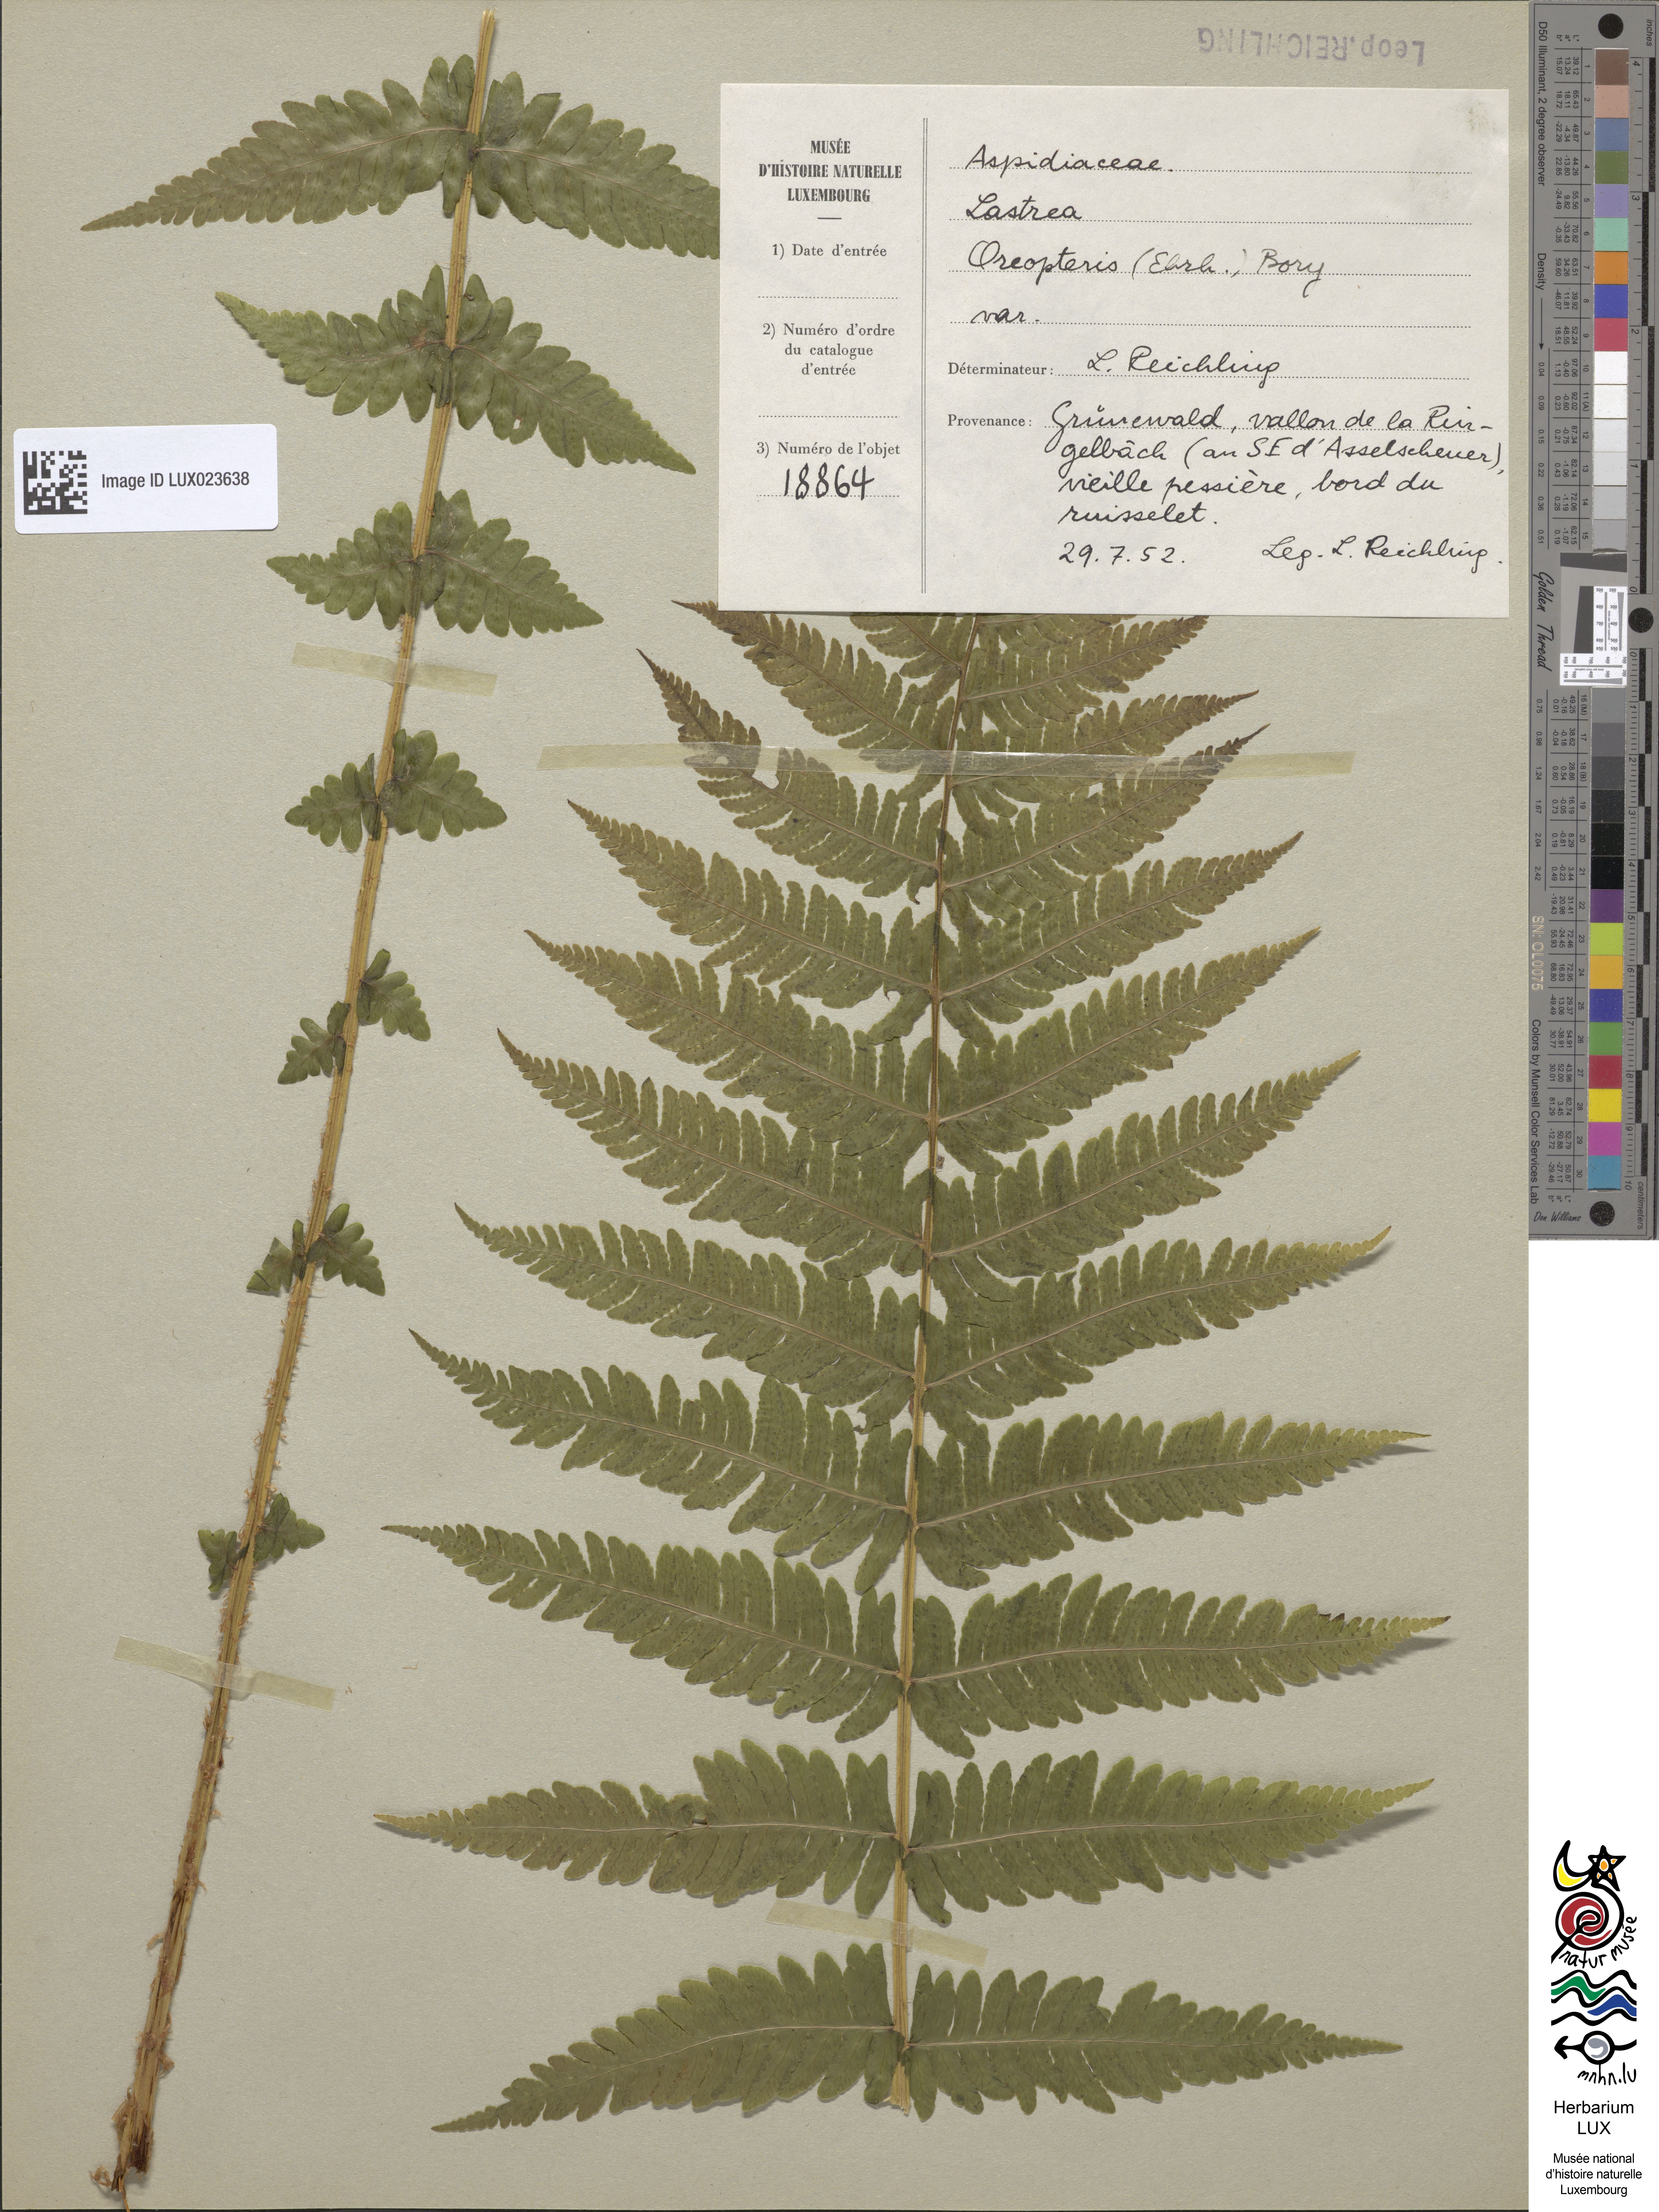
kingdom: Plantae
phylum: Tracheophyta
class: Polypodiopsida
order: Polypodiales
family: Thelypteridaceae
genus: Oreopteris
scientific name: Oreopteris limbosperma
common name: Lemon-scented fern
